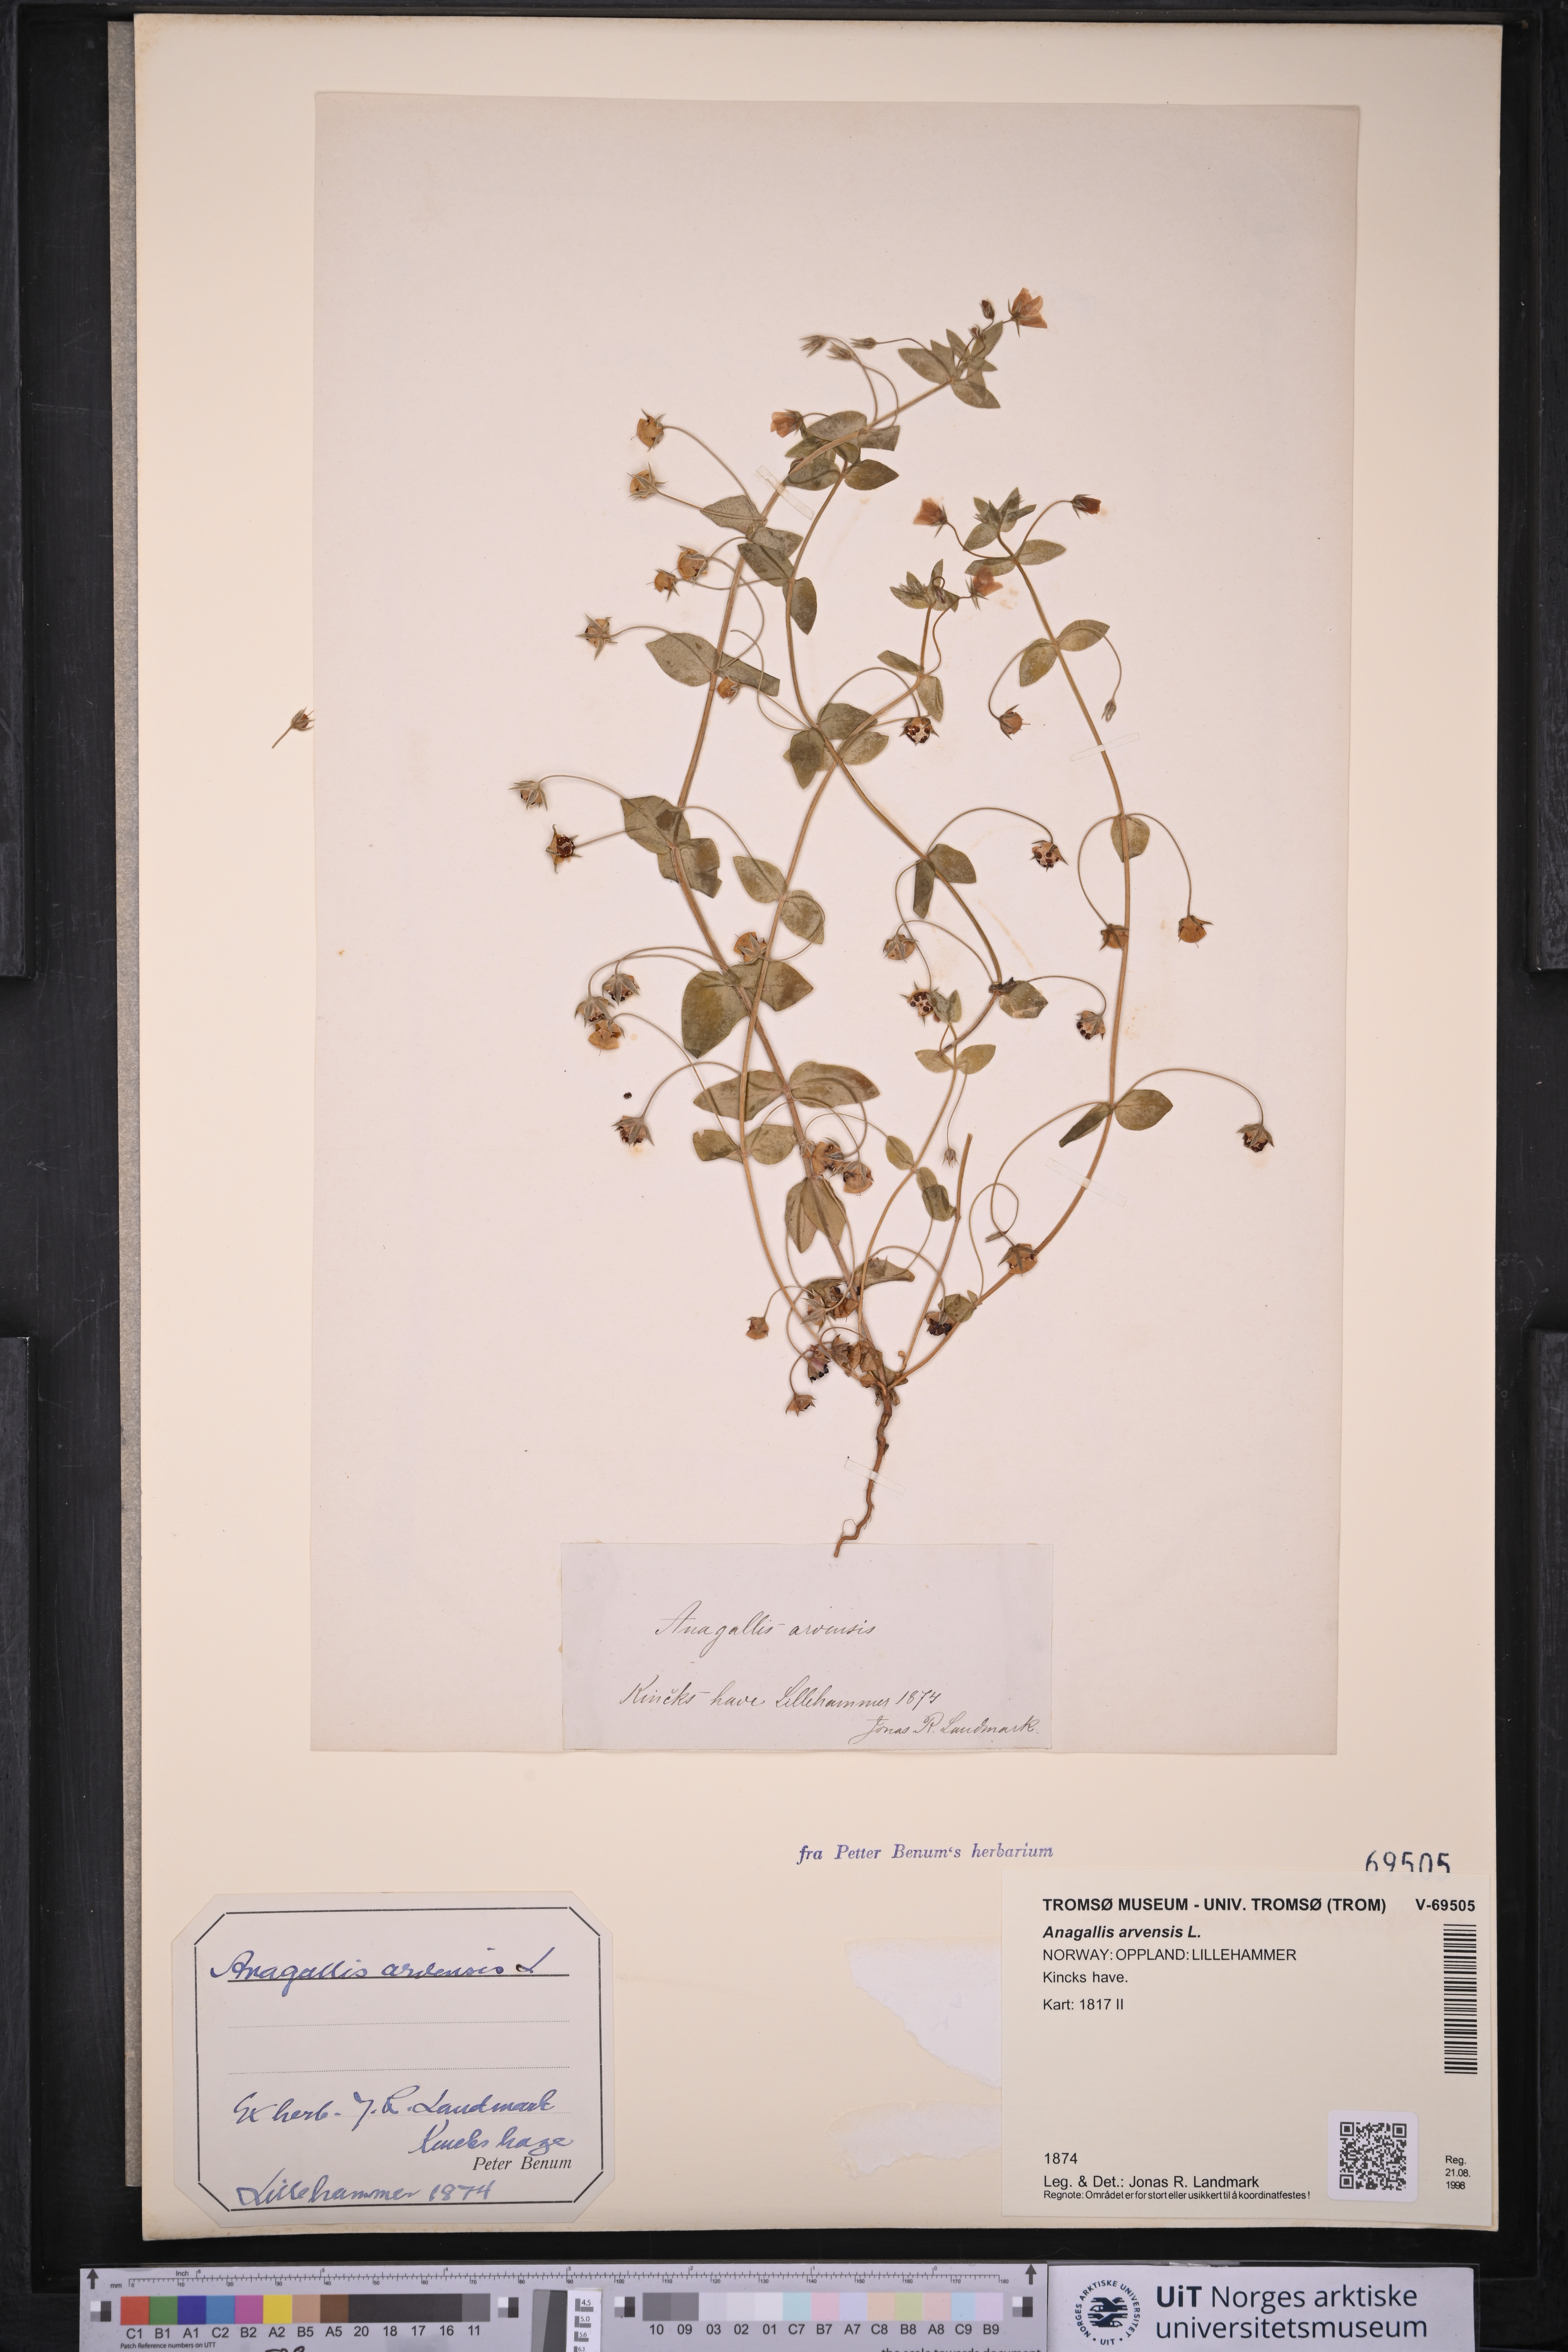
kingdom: Plantae
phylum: Tracheophyta
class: Magnoliopsida
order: Ericales
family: Primulaceae
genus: Lysimachia
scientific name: Lysimachia arvensis
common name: Scarlet pimpernel
